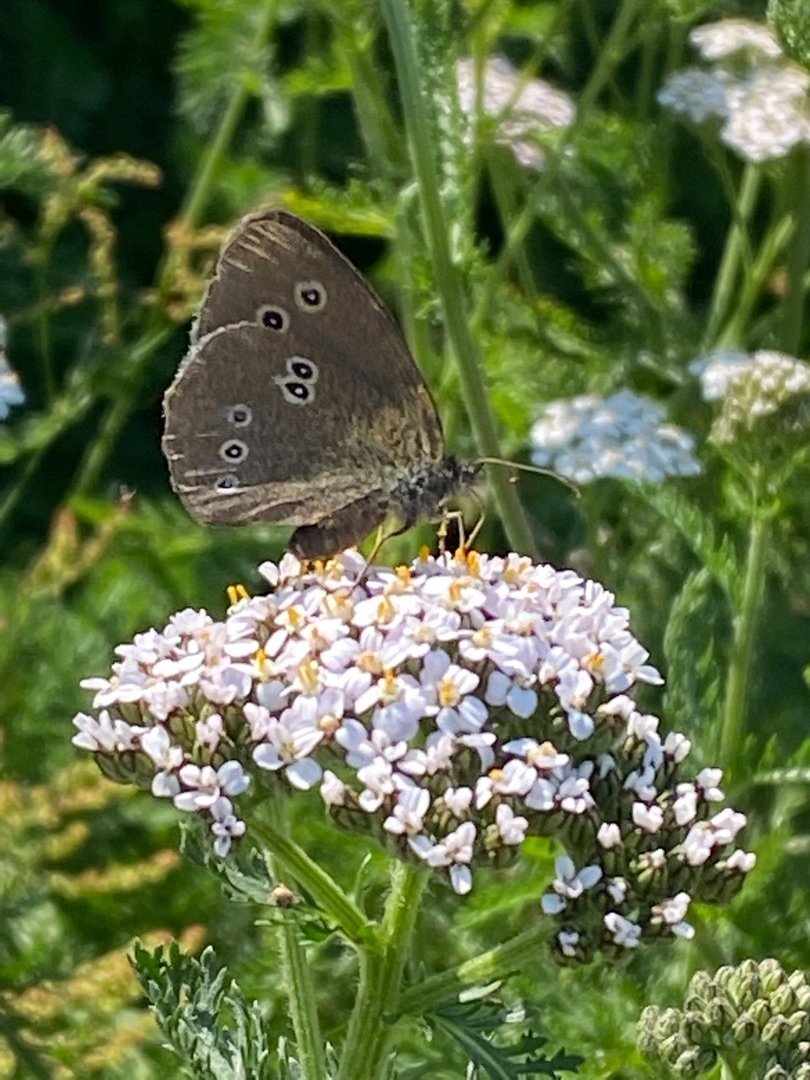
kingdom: Animalia
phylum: Arthropoda
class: Insecta
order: Lepidoptera
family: Nymphalidae
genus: Aphantopus
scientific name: Aphantopus hyperantus
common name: Engrandøje
